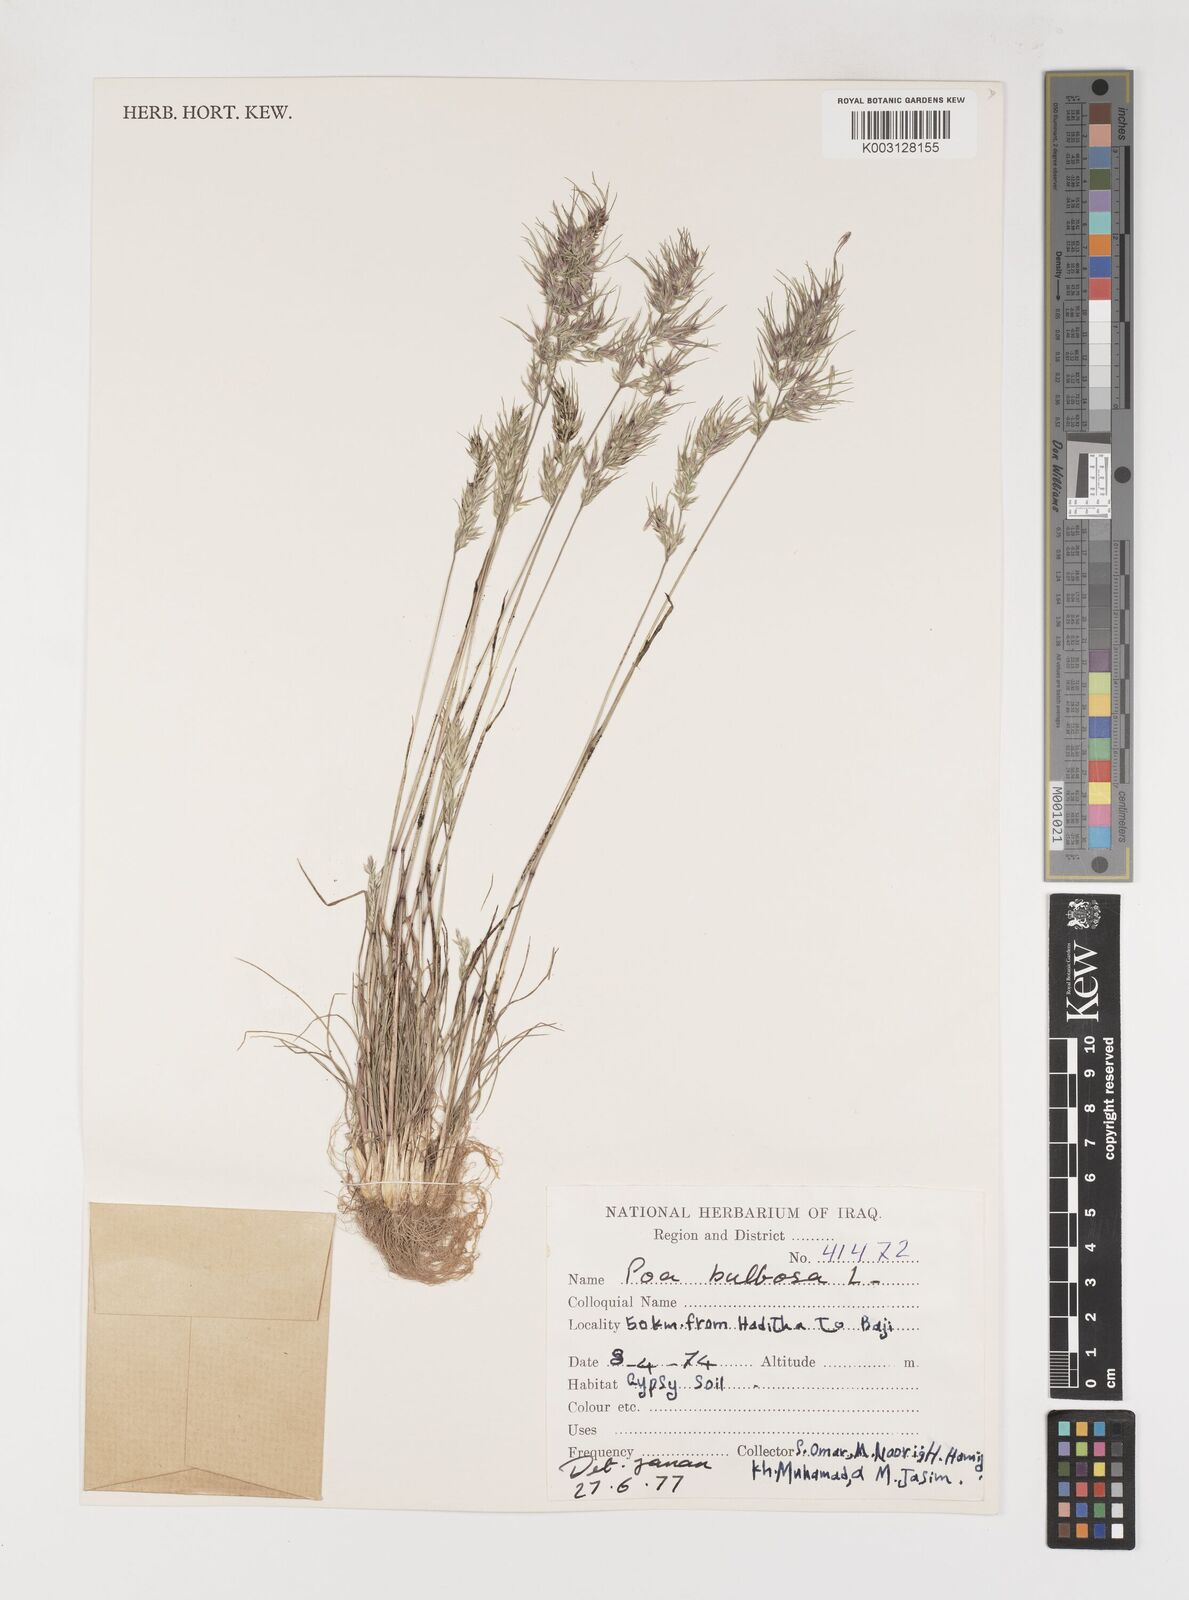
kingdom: Plantae
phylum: Tracheophyta
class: Liliopsida
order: Poales
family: Poaceae
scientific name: Poaceae
